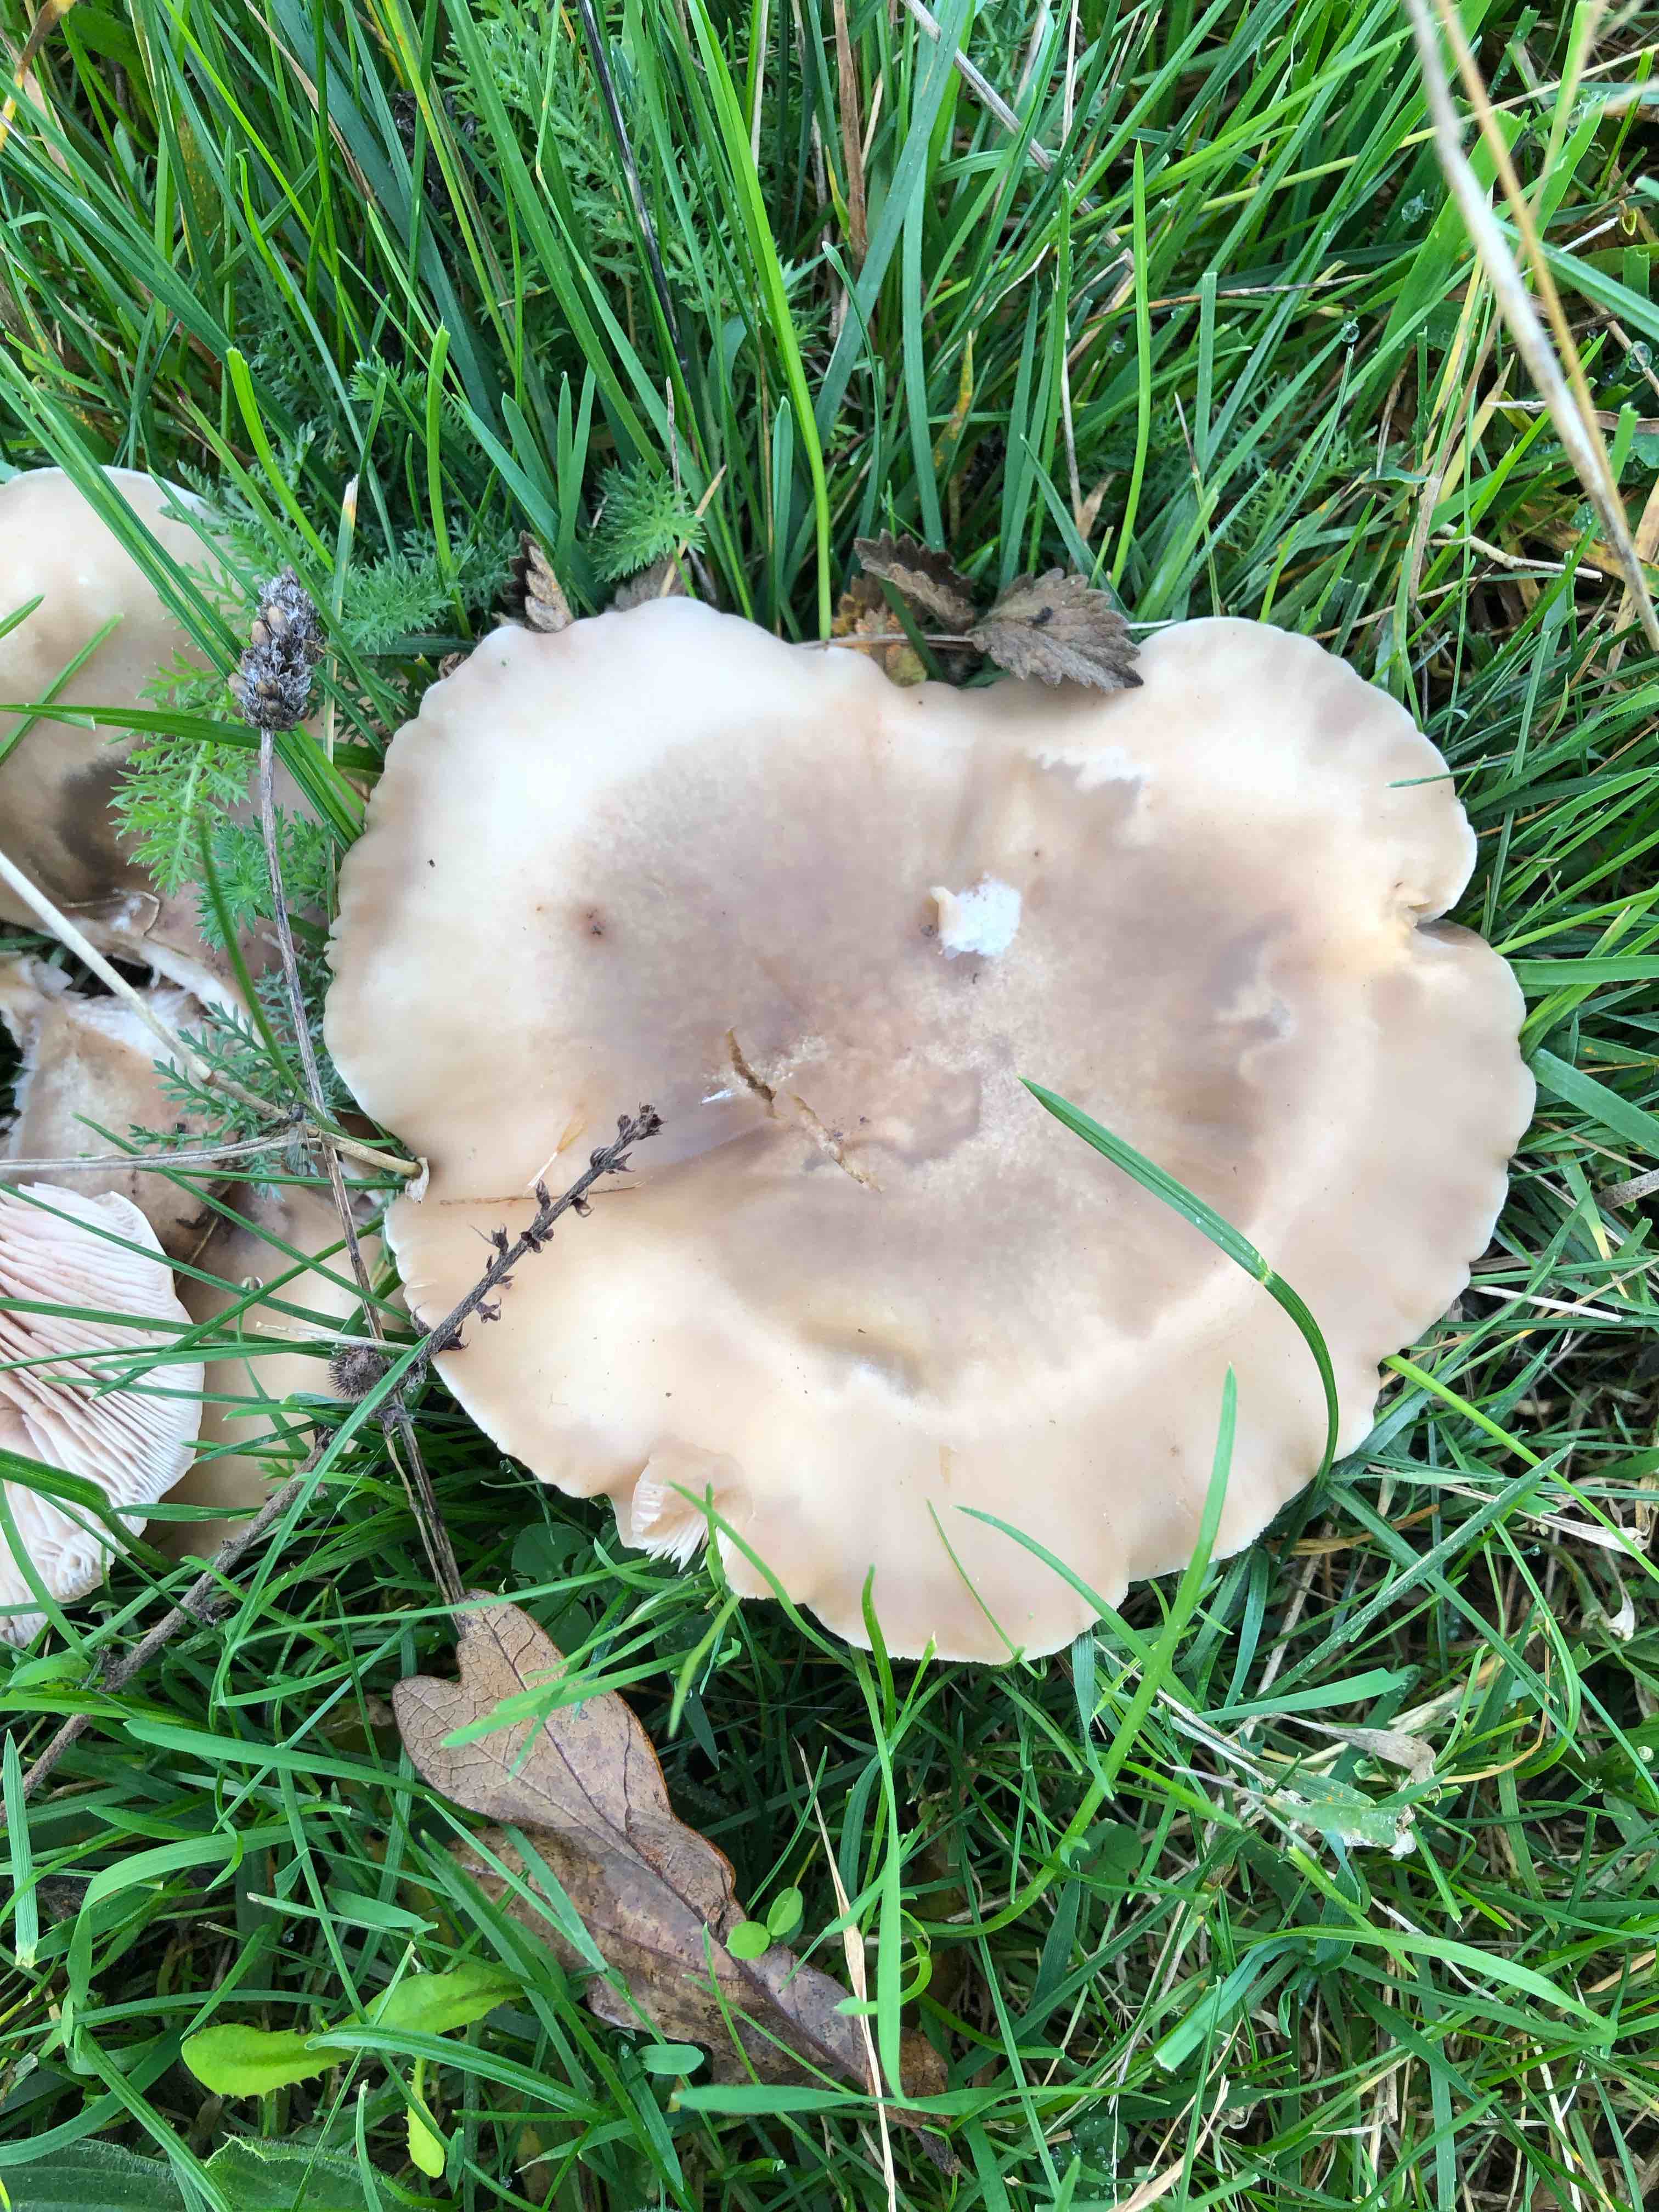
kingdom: Fungi
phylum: Basidiomycota
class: Agaricomycetes
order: Agaricales
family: Tricholomataceae
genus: Lepista
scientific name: Lepista personata
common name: bleg hekseringshat
